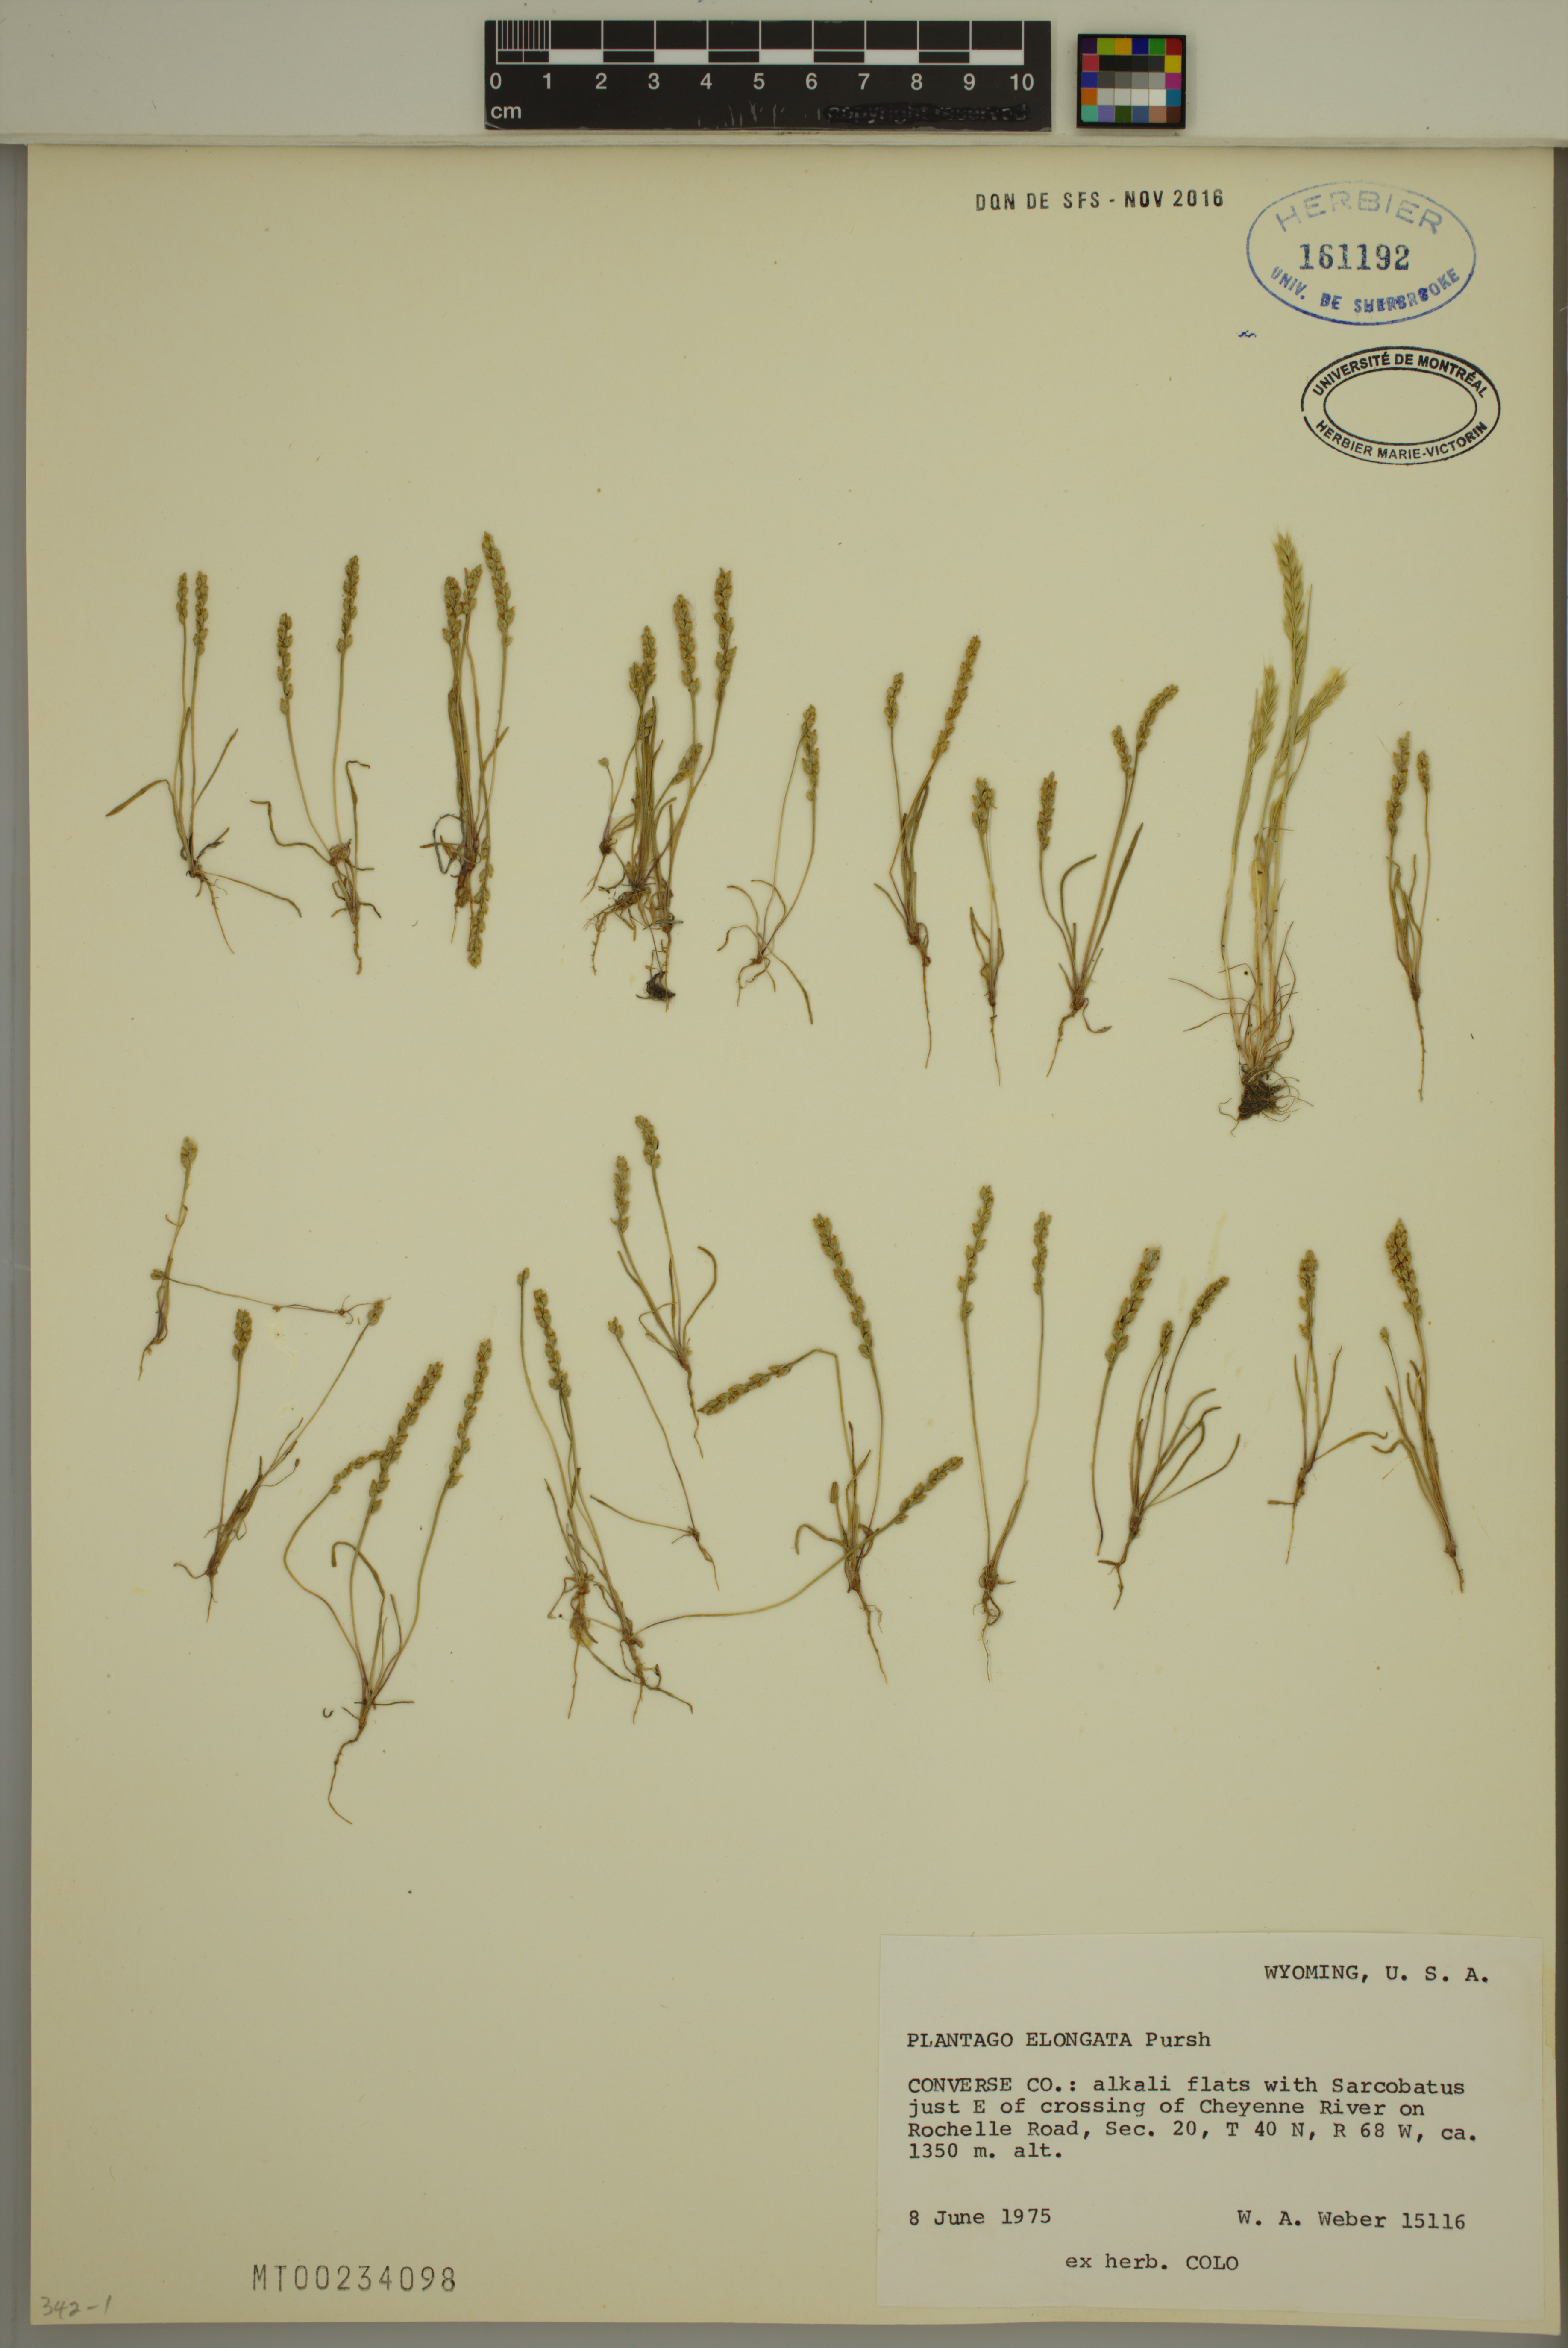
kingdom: Plantae
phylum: Tracheophyta
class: Magnoliopsida
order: Lamiales
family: Plantaginaceae
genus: Plantago
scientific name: Plantago elongata
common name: Linear-leaved plantain
